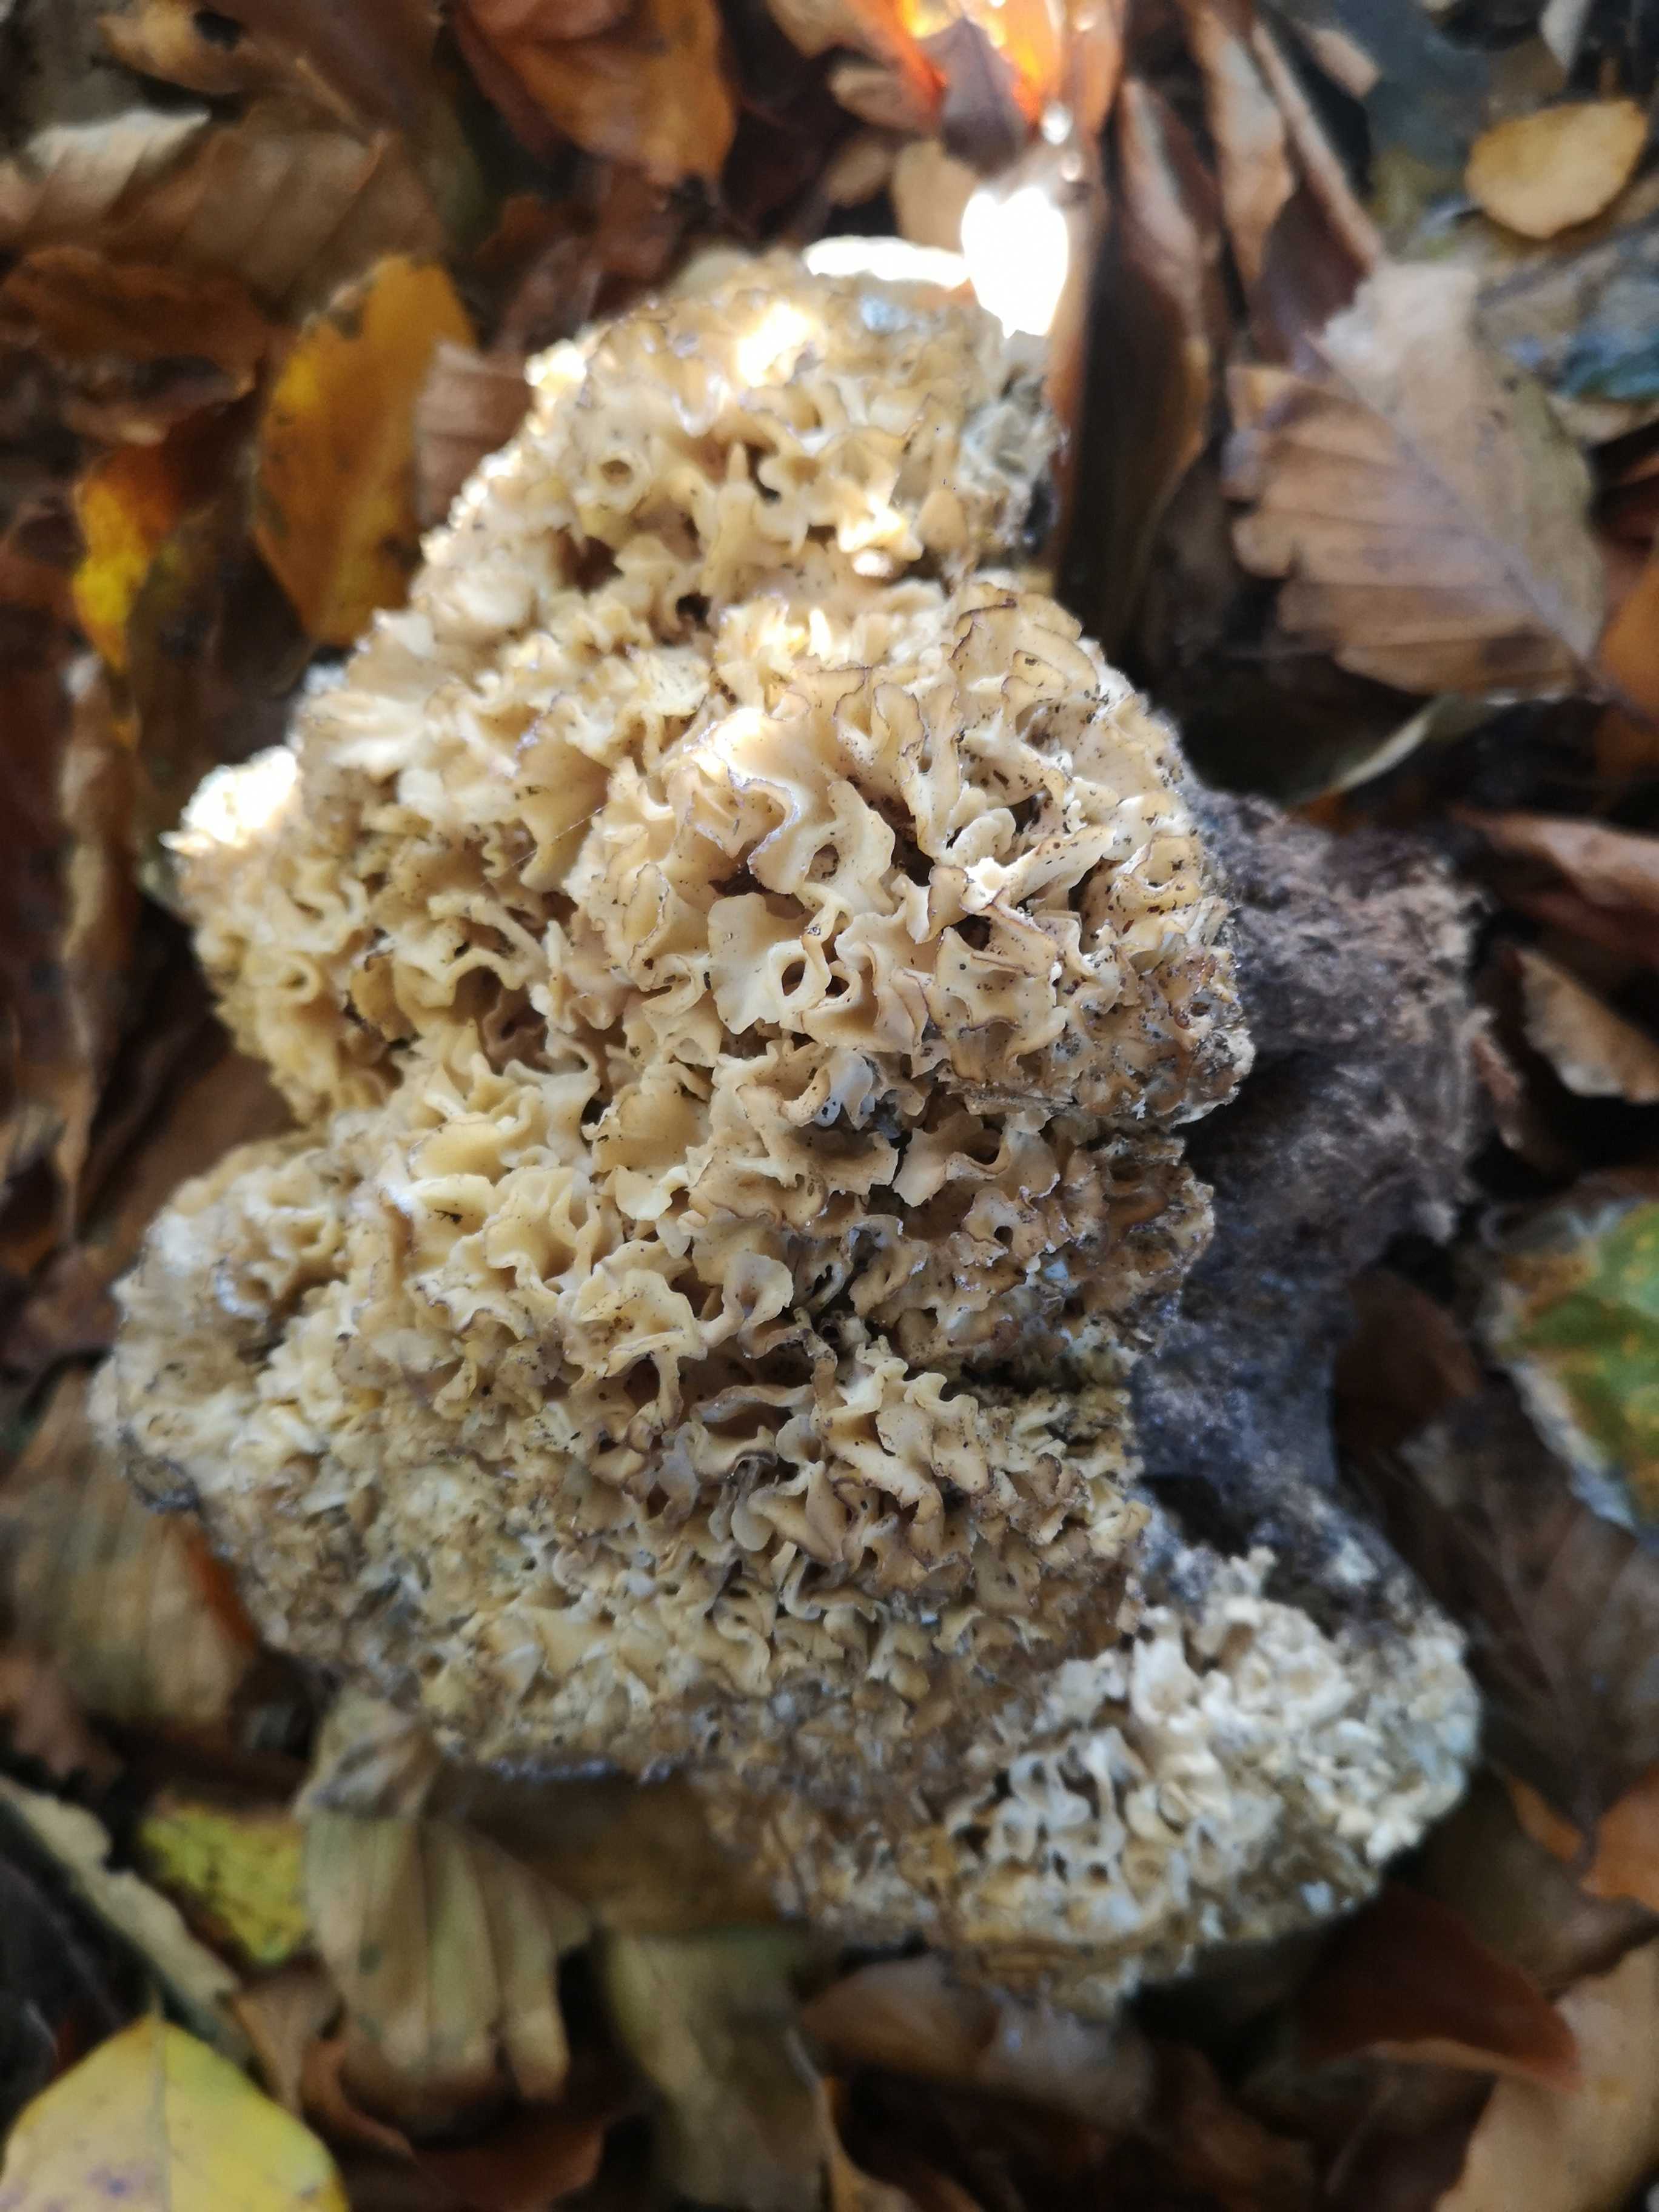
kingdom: Fungi
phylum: Basidiomycota
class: Agaricomycetes
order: Polyporales
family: Sparassidaceae
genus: Sparassis
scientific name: Sparassis crispa
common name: kruset blomkålssvamp
